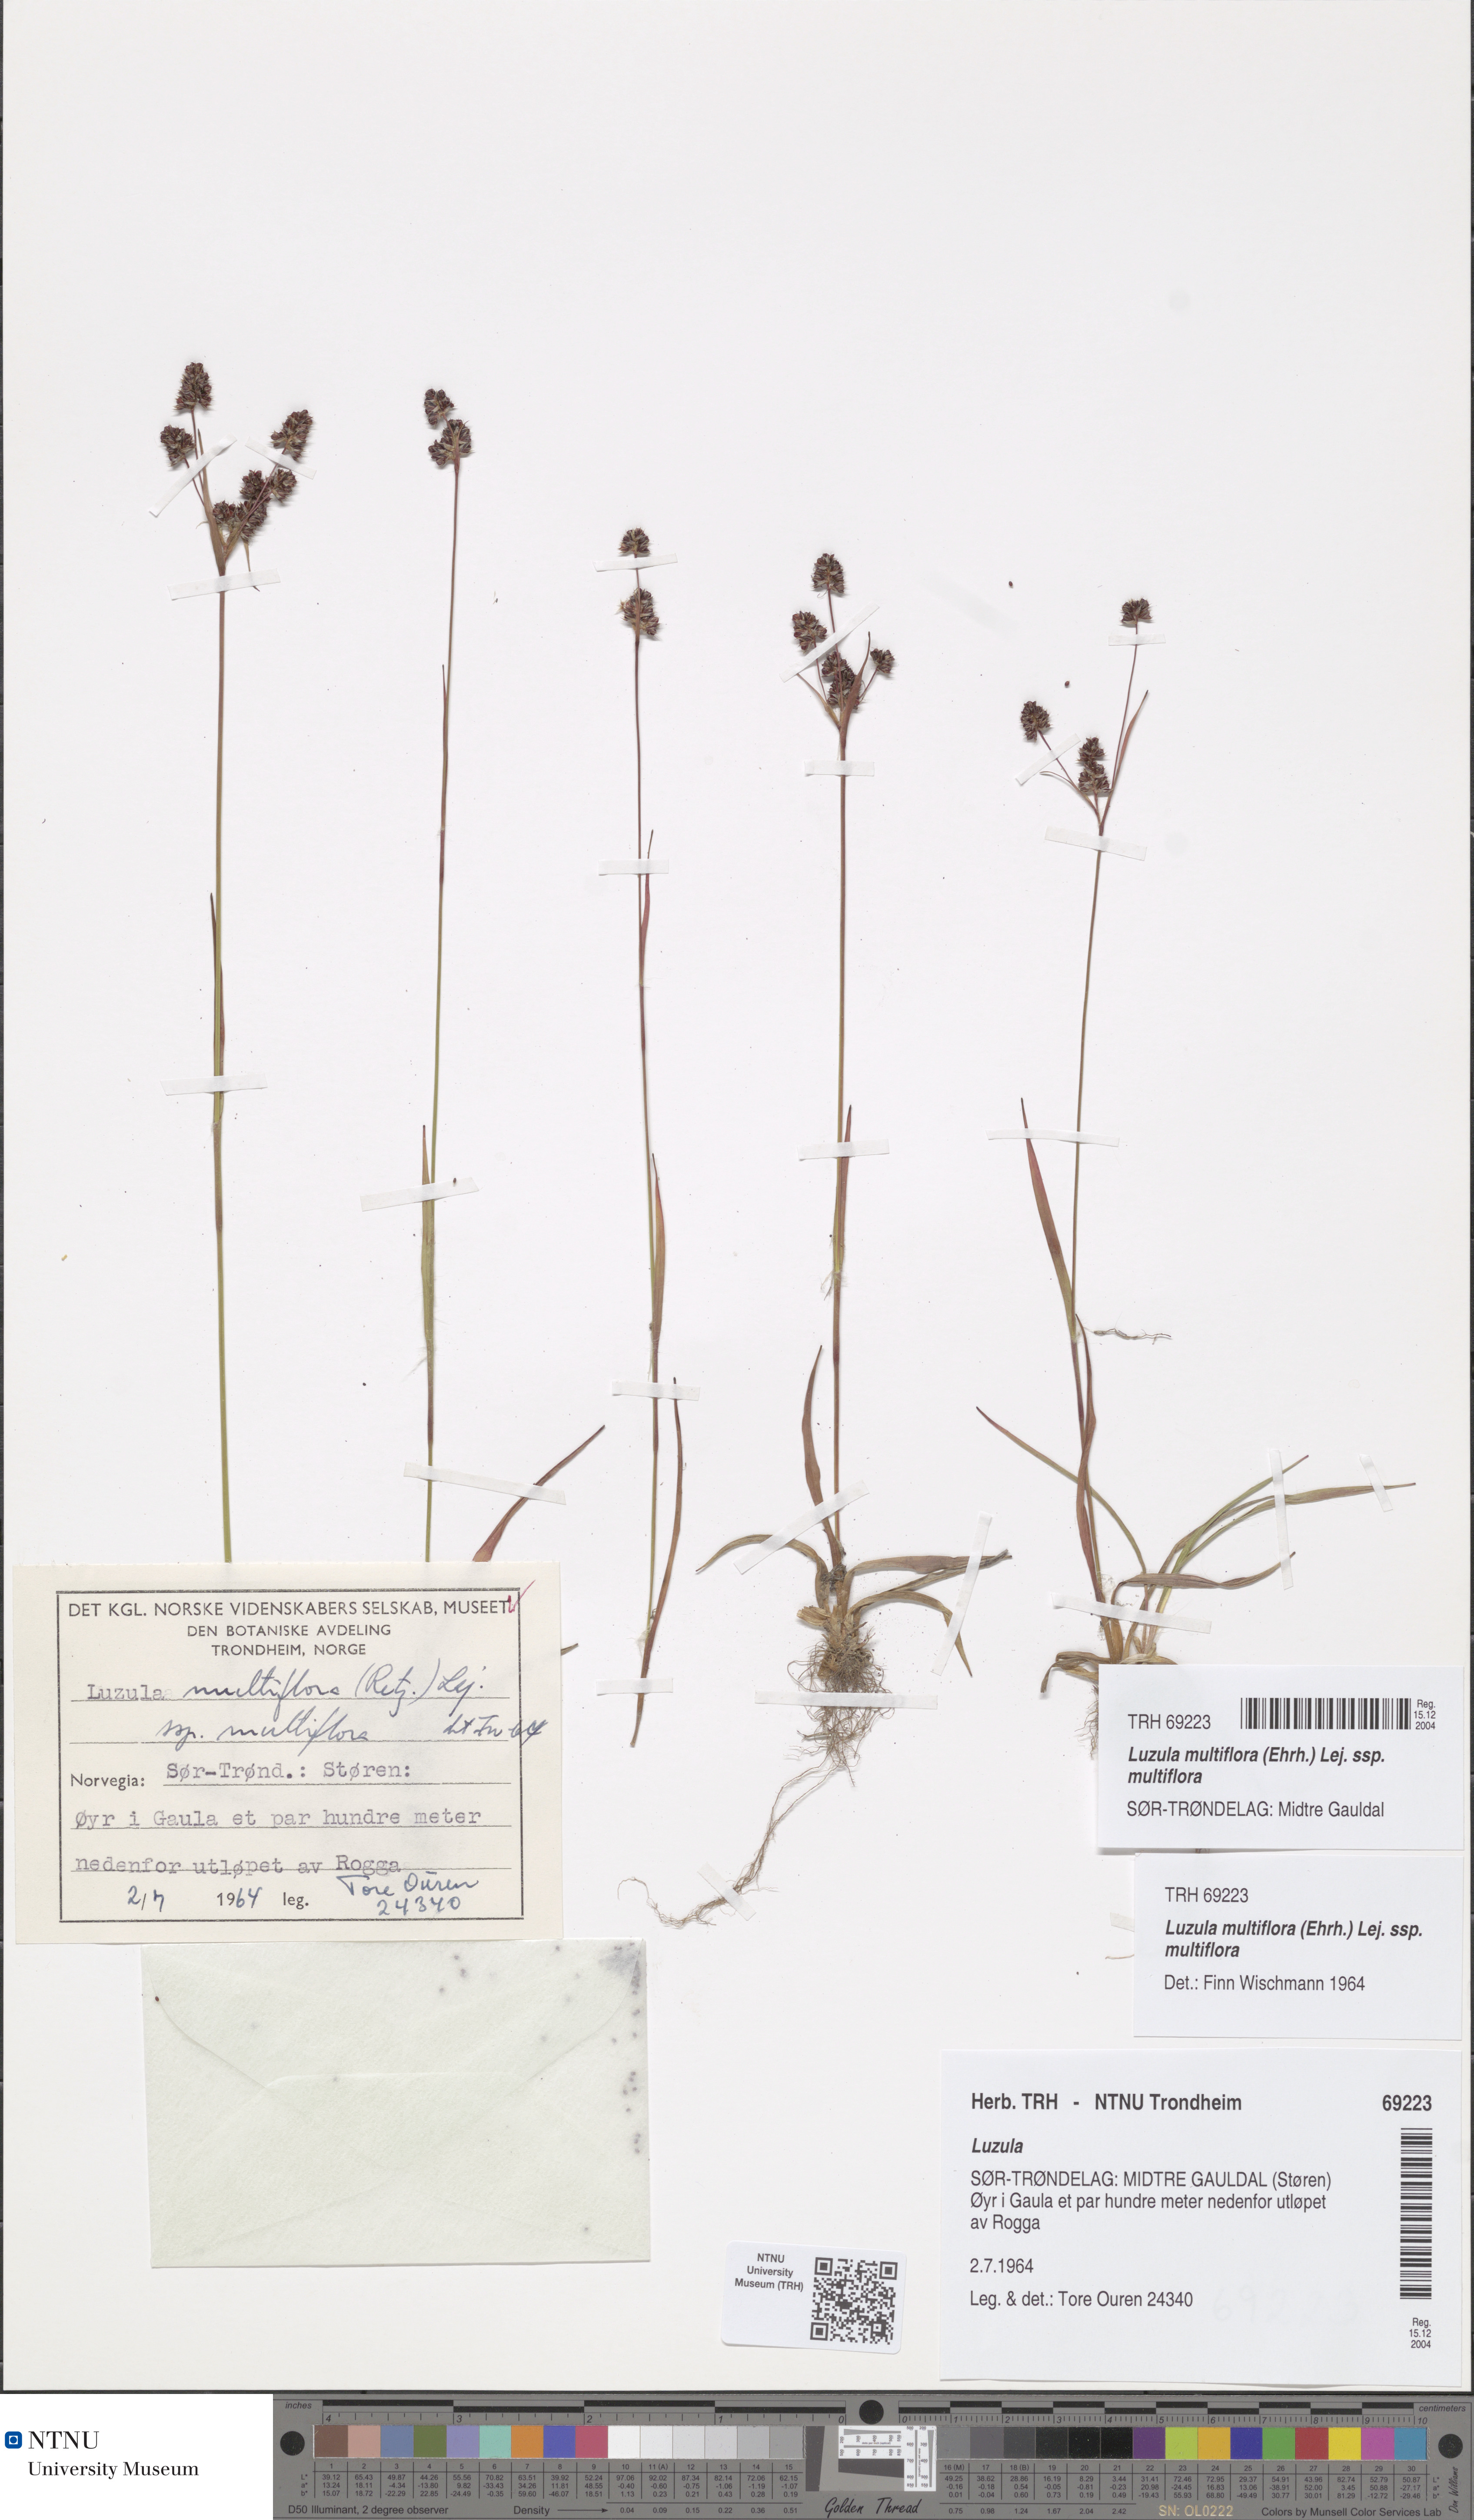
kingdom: Plantae
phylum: Tracheophyta
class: Liliopsida
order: Poales
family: Juncaceae
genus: Luzula
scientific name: Luzula multiflora
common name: Heath wood-rush
